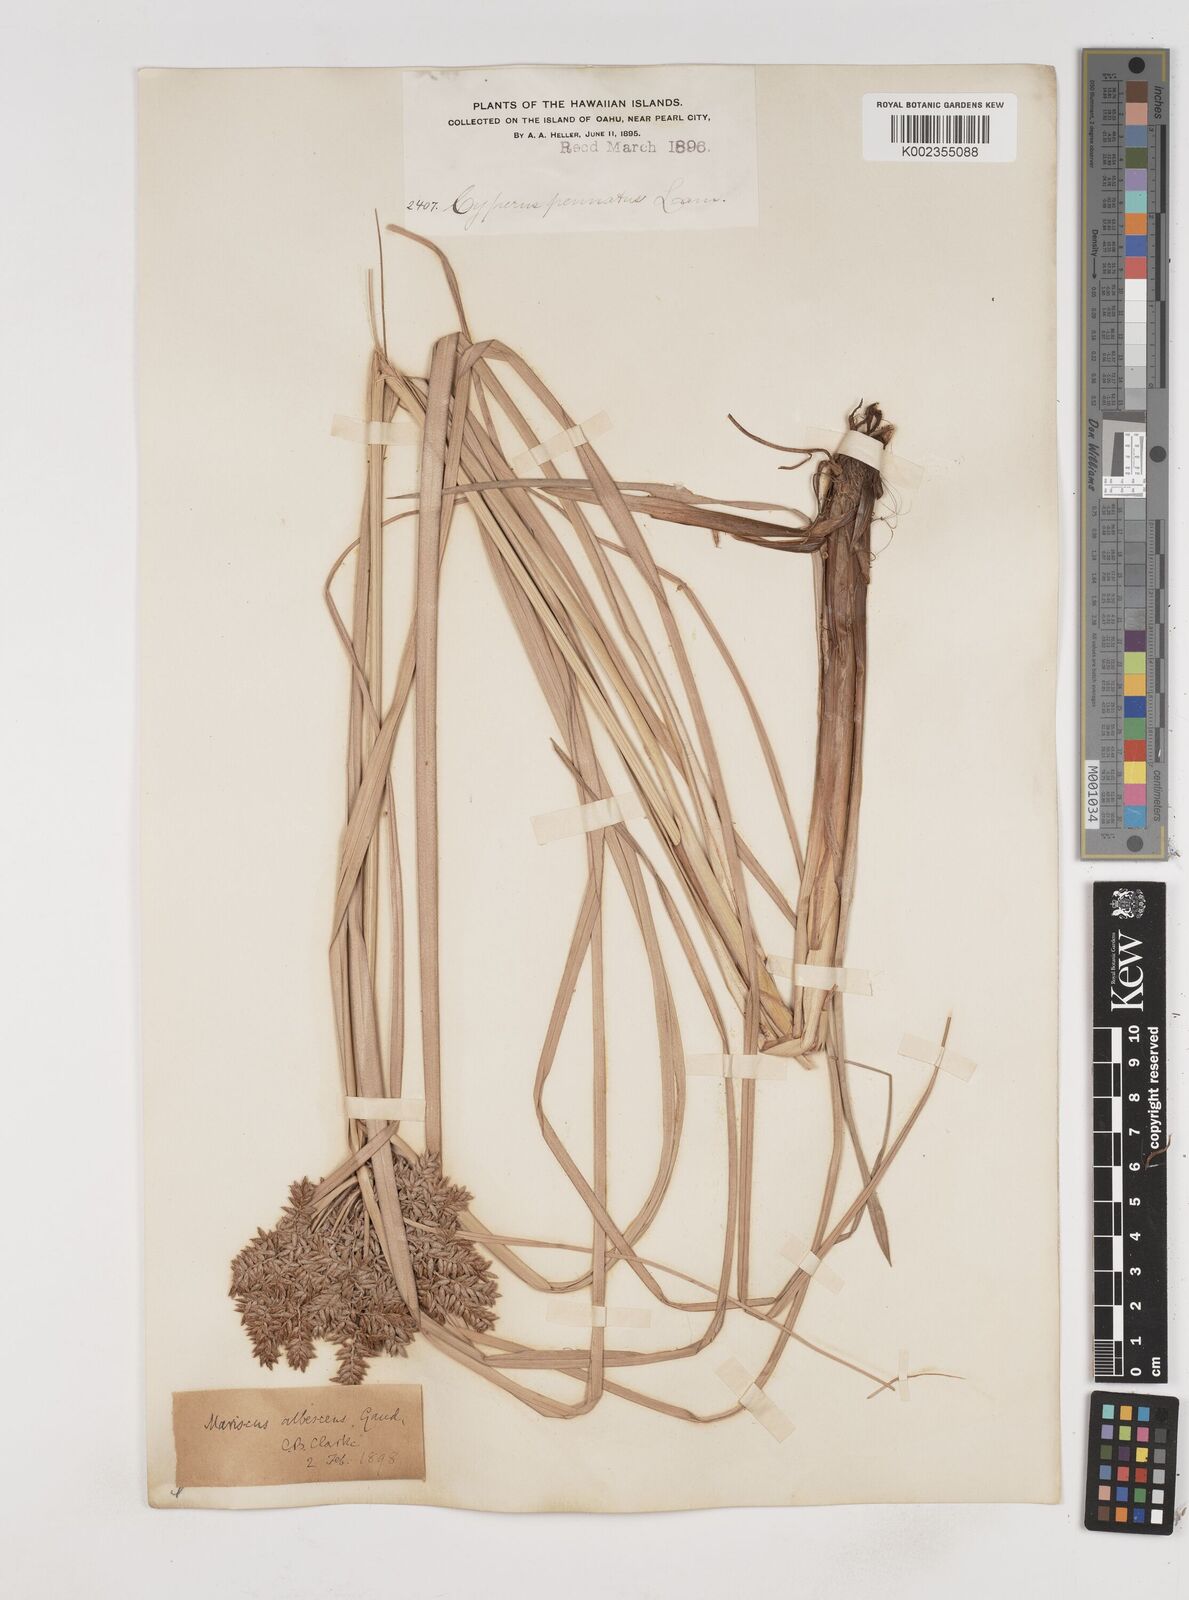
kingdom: Plantae
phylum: Tracheophyta
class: Liliopsida
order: Poales
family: Cyperaceae
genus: Cyperus
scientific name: Cyperus javanicus
